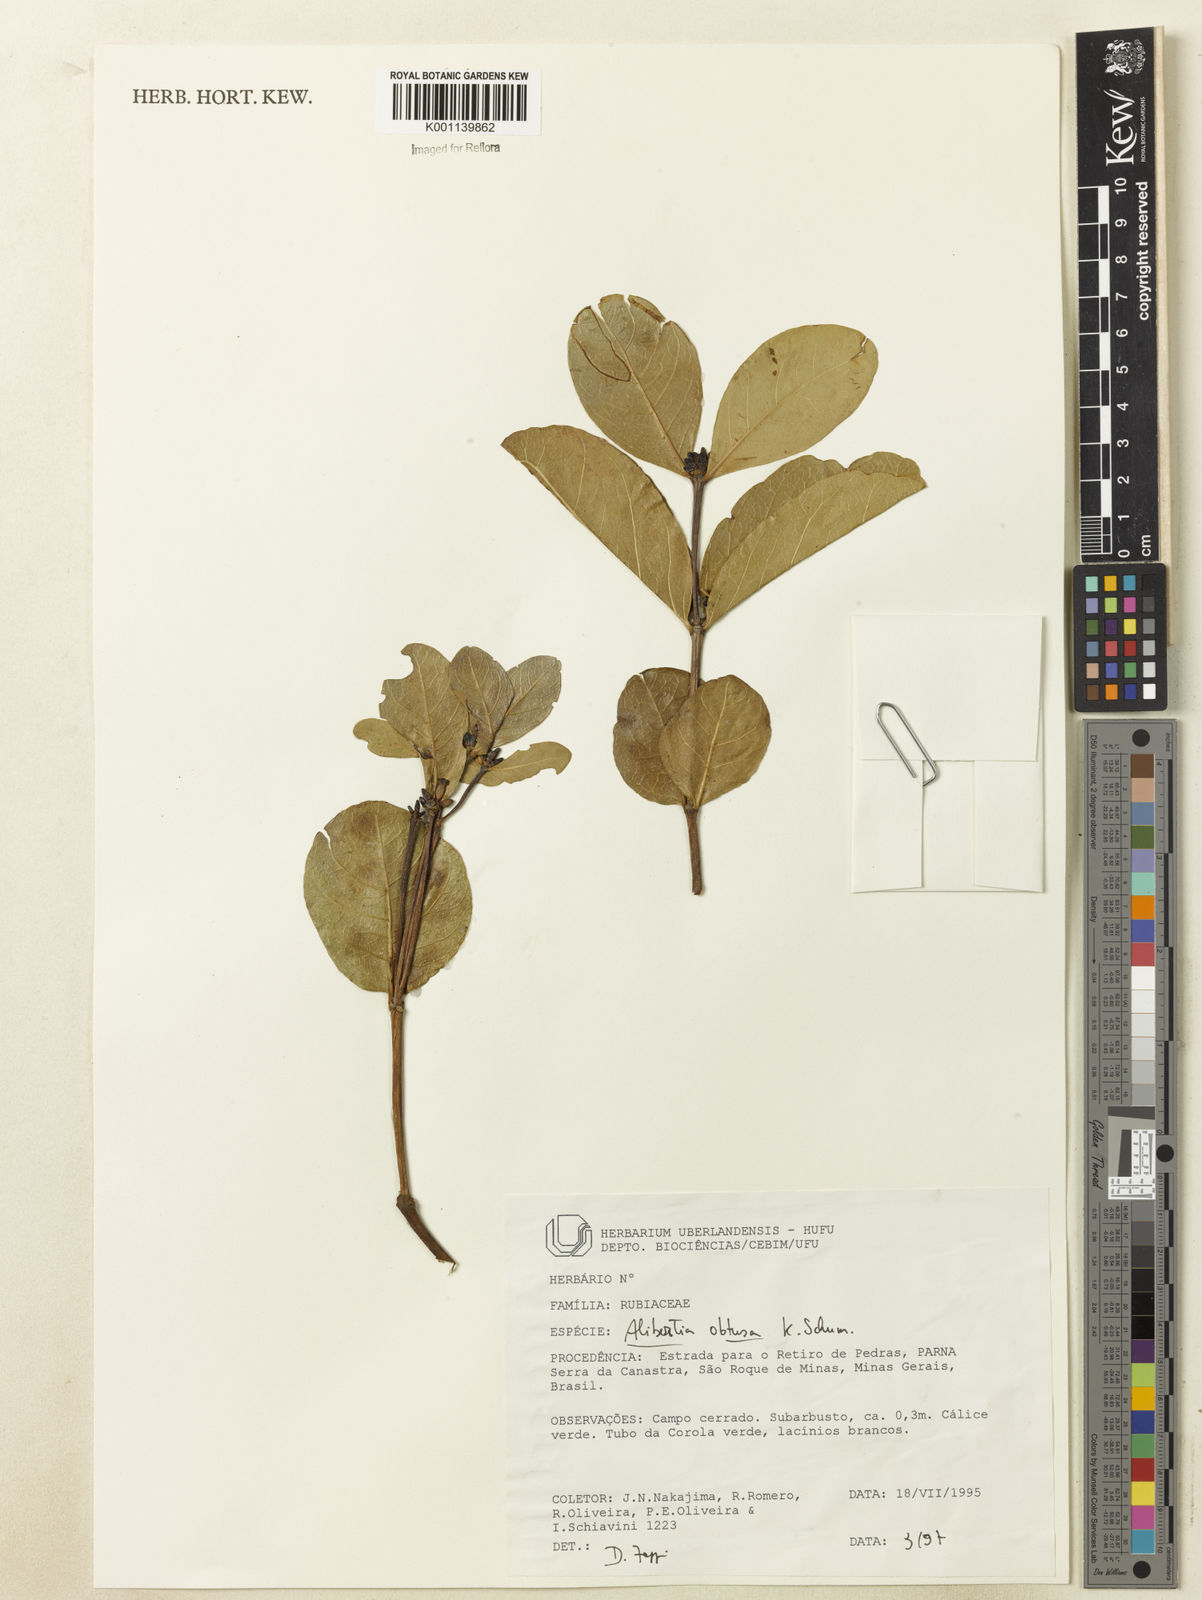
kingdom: Plantae
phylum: Tracheophyta
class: Magnoliopsida
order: Gentianales
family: Rubiaceae
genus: Cordiera
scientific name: Cordiera obtusa
